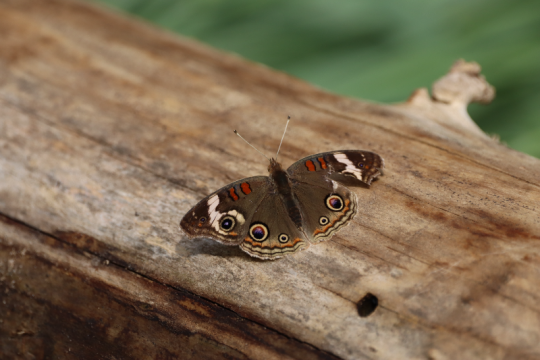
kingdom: Animalia
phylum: Arthropoda
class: Insecta
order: Lepidoptera
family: Nymphalidae
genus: Junonia
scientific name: Junonia coenia
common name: Common Buckeye
